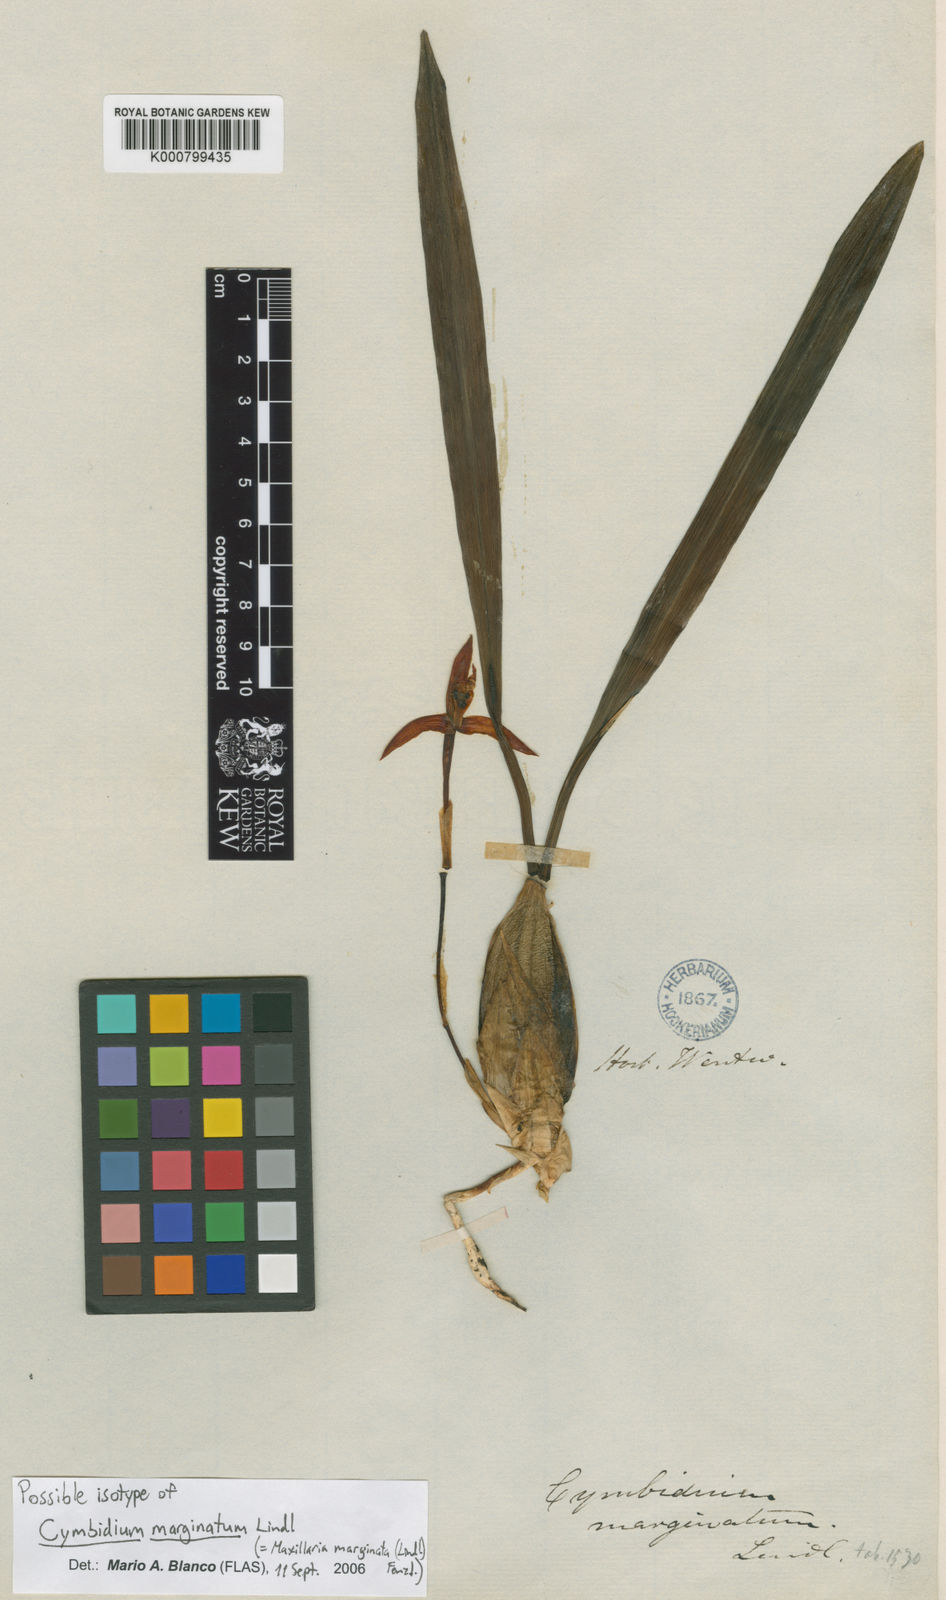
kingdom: Plantae
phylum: Tracheophyta
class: Liliopsida
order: Asparagales
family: Orchidaceae
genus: Maxillaria
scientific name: Maxillaria marginata
